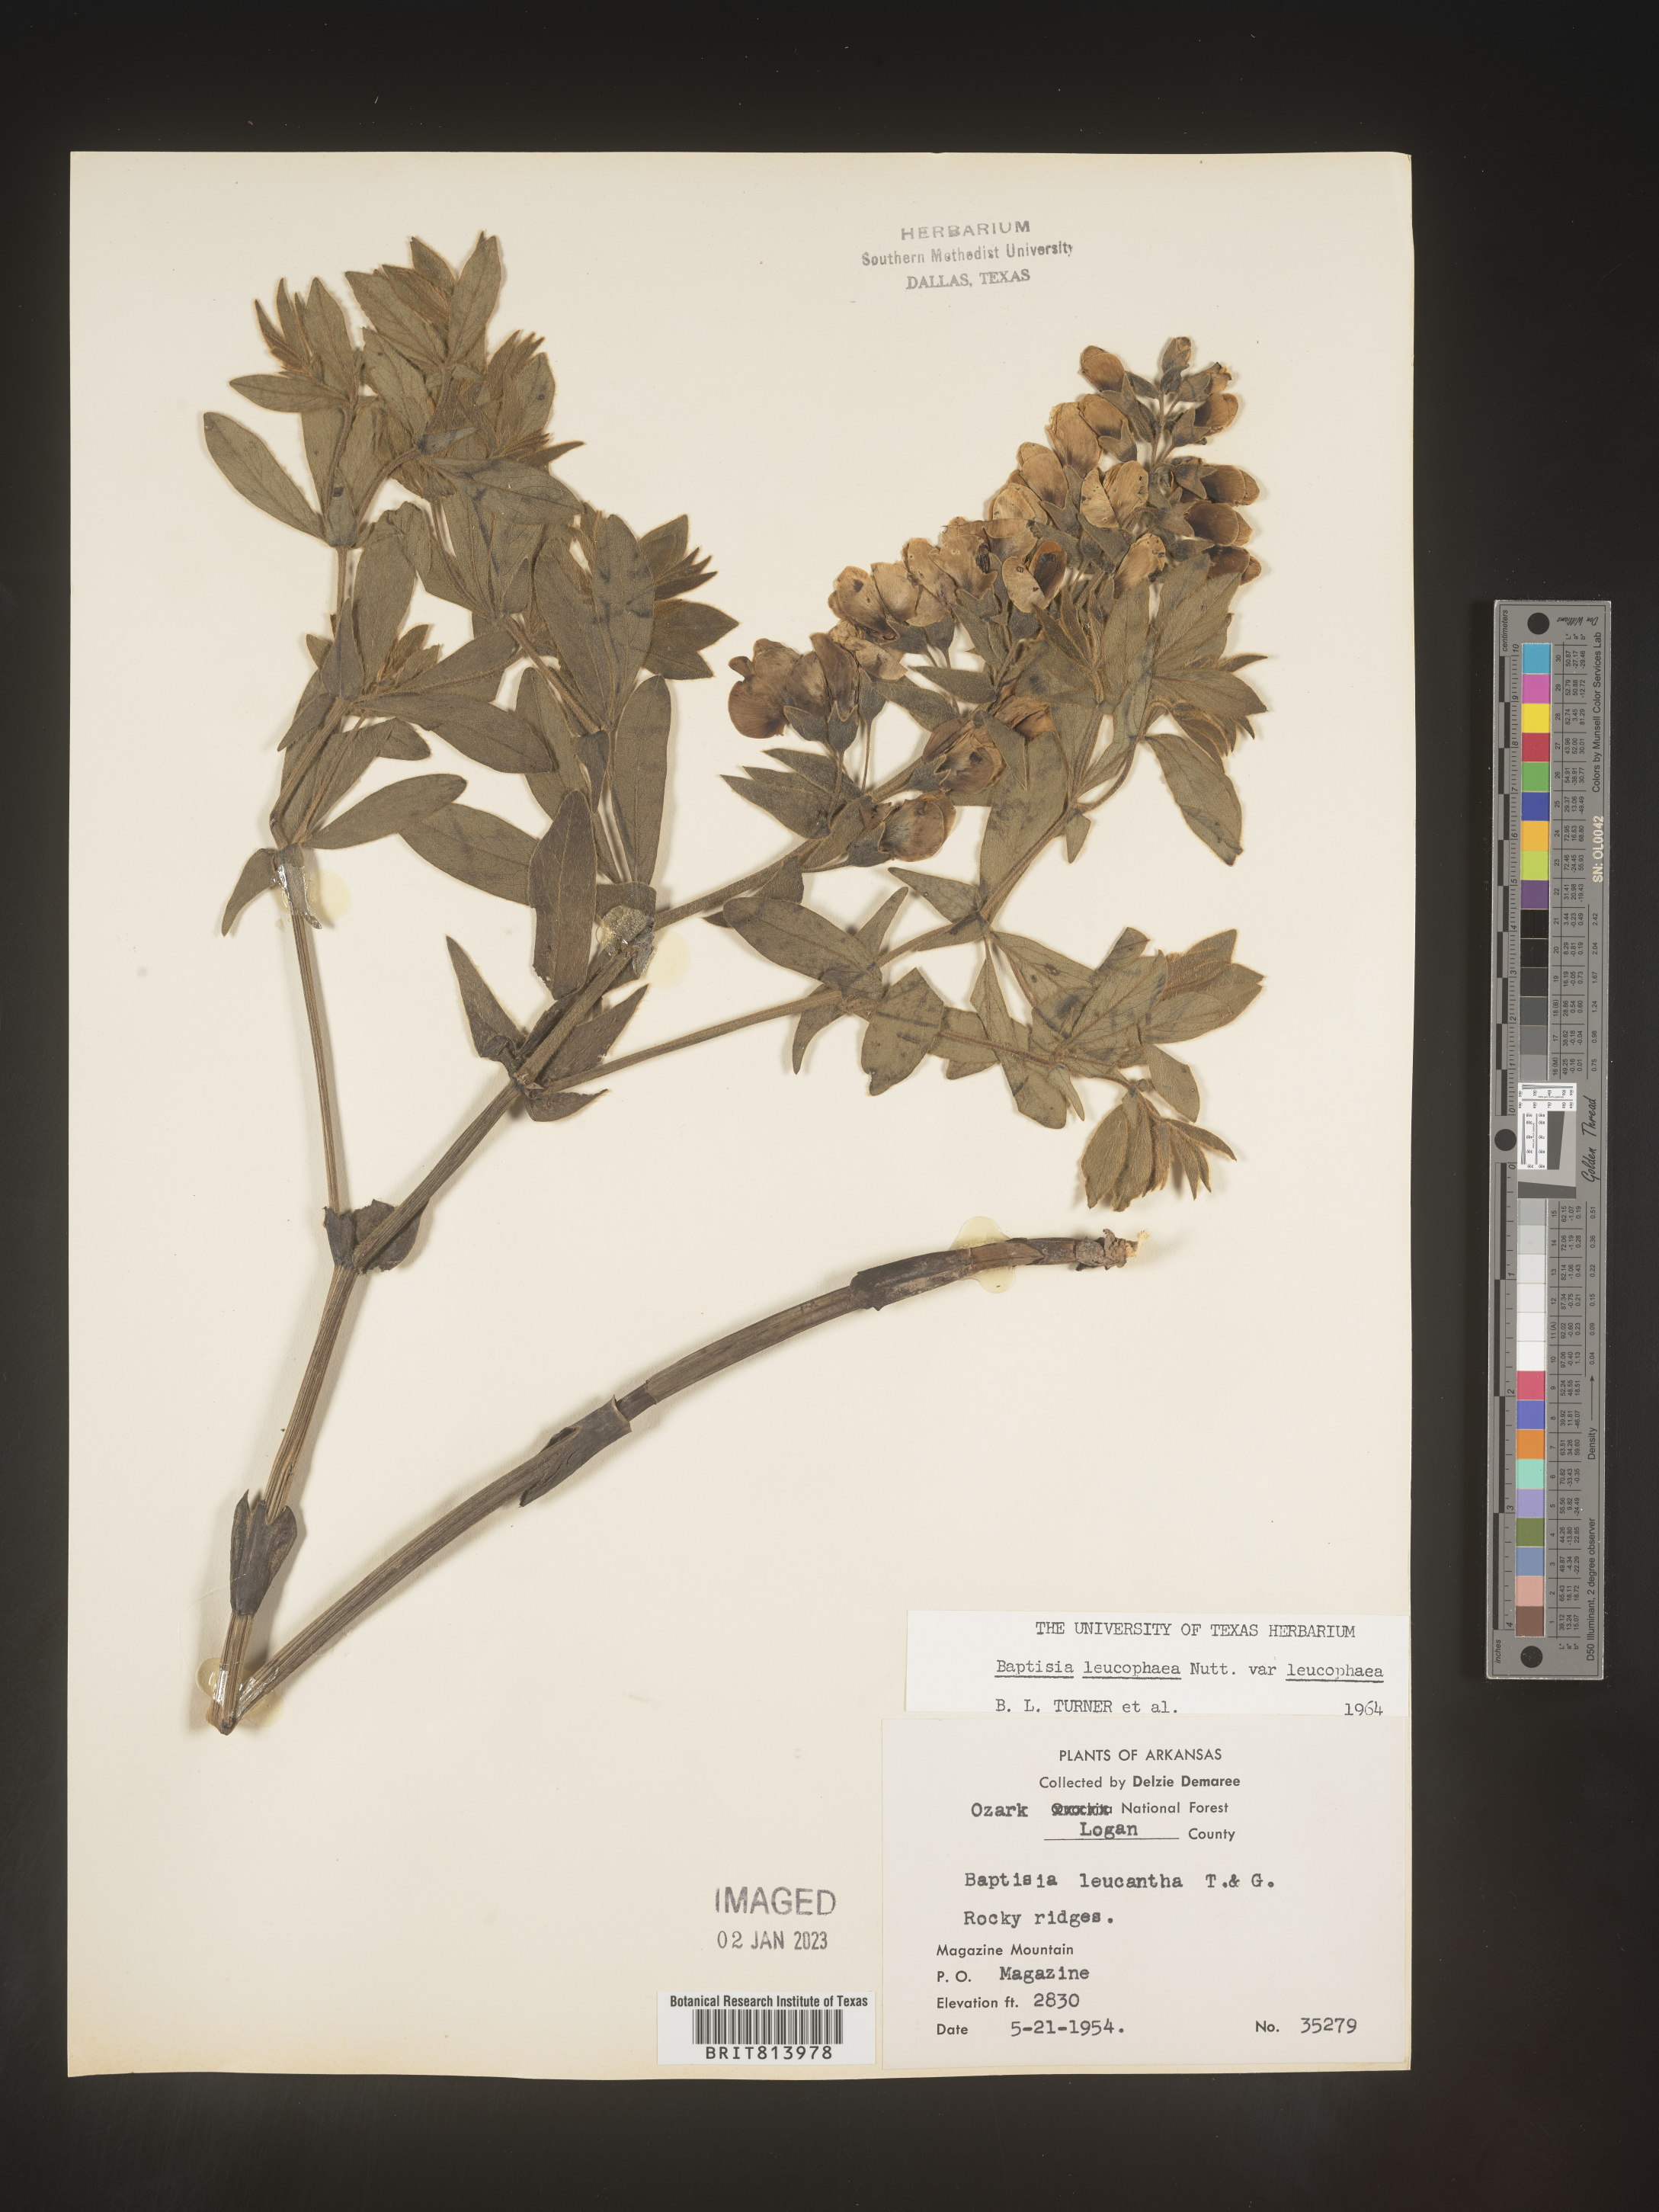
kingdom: Plantae
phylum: Tracheophyta
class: Magnoliopsida
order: Fabales
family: Fabaceae
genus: Baptisia
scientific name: Baptisia bracteata
